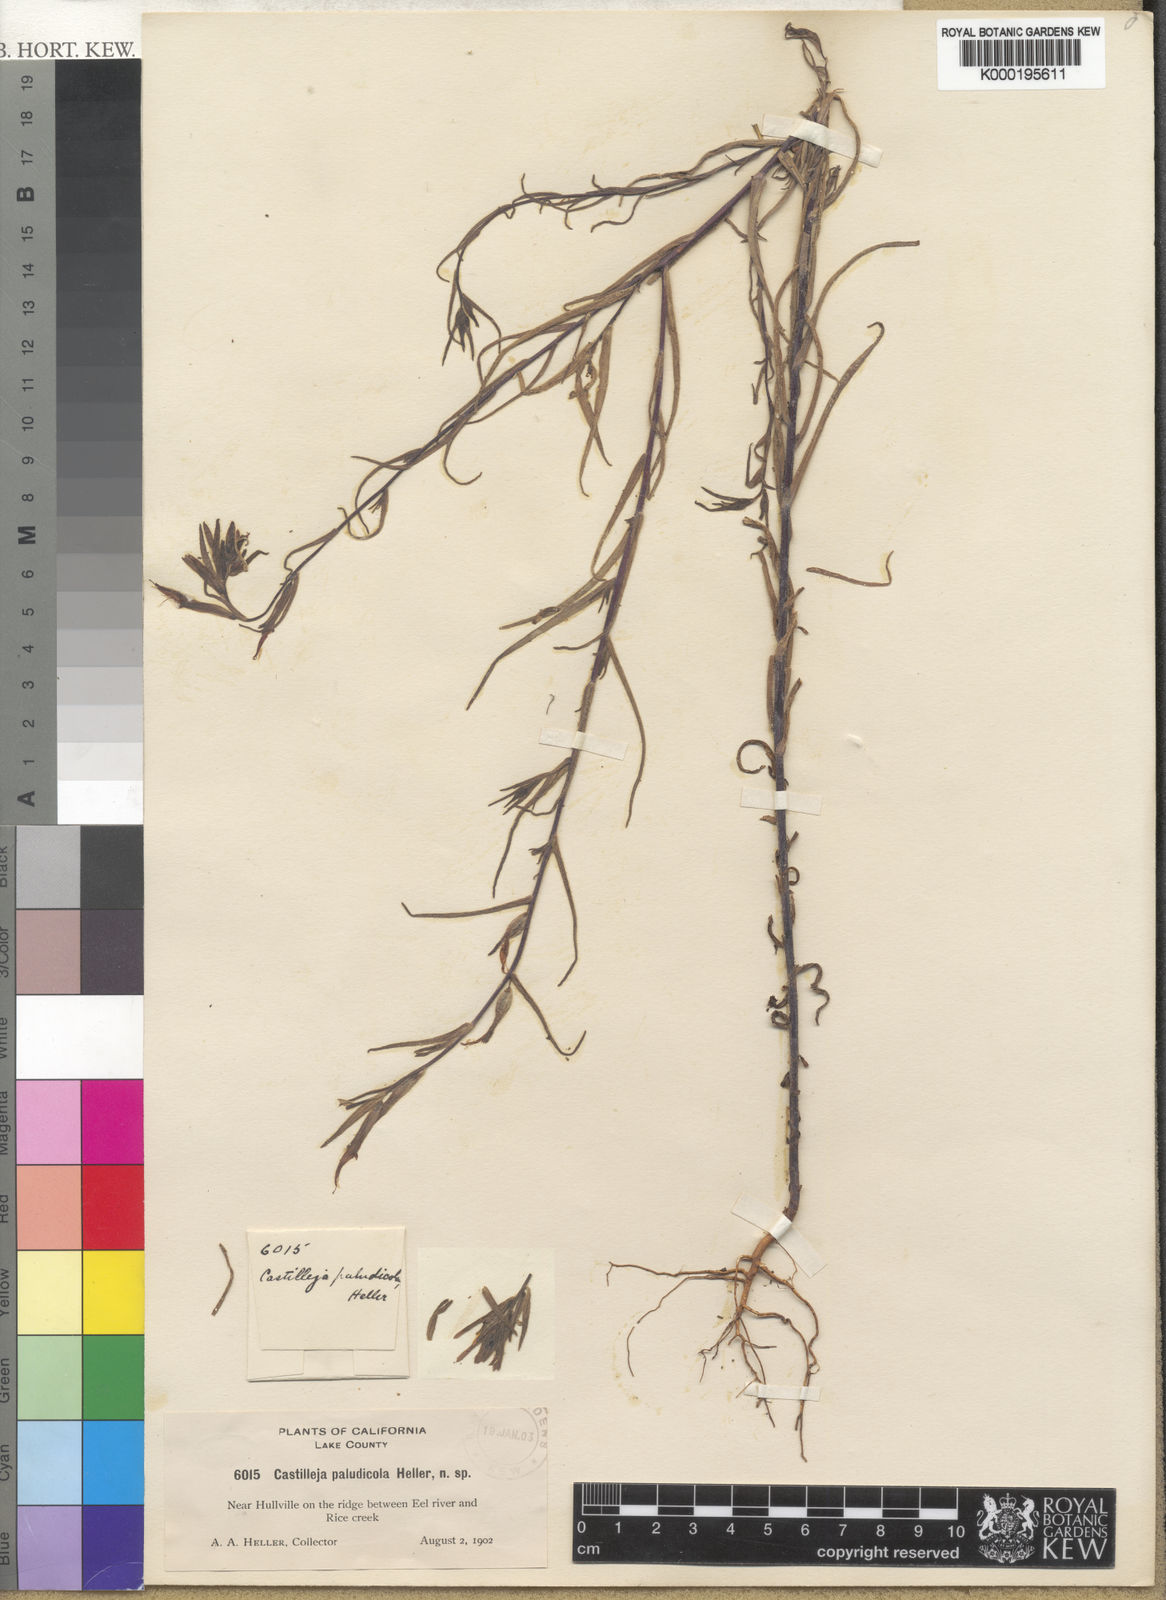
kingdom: Plantae
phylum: Tracheophyta
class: Magnoliopsida
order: Lamiales
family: Orobanchaceae
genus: Castilleja
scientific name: Castilleja minor
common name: Seep paintbrush
